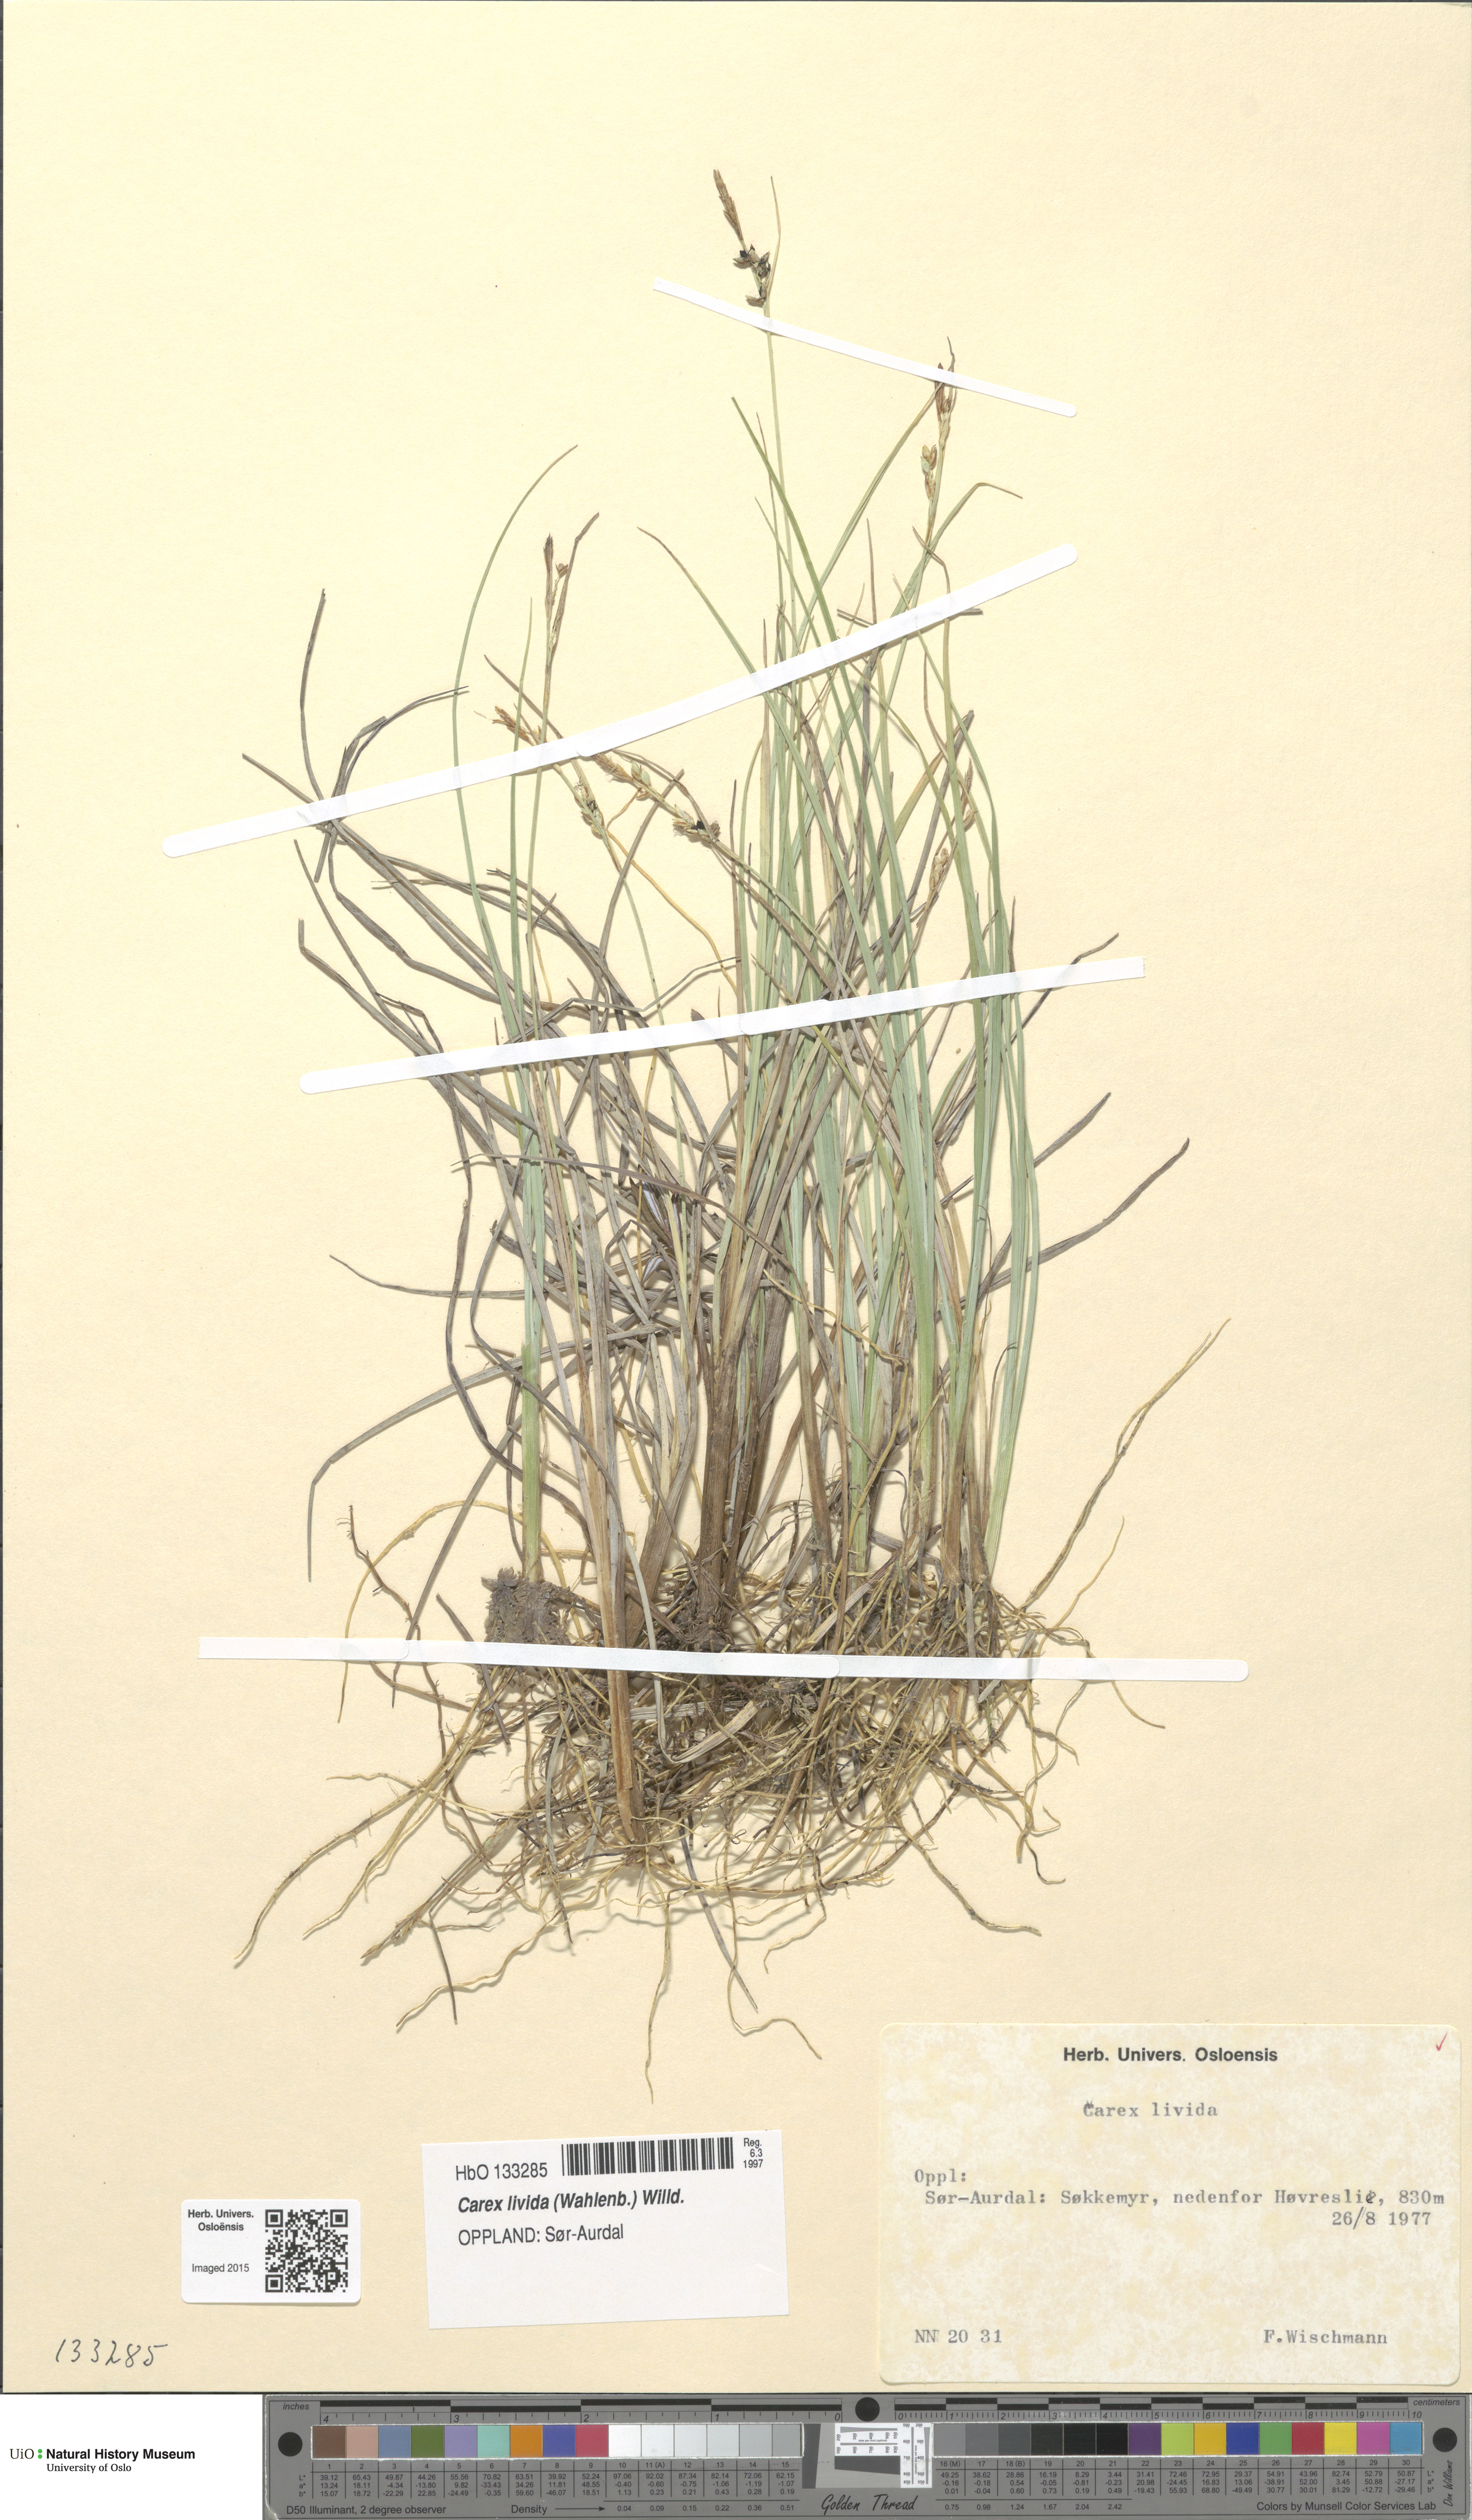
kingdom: Plantae
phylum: Tracheophyta
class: Liliopsida
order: Poales
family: Cyperaceae
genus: Carex
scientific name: Carex livida
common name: Livid sedge
